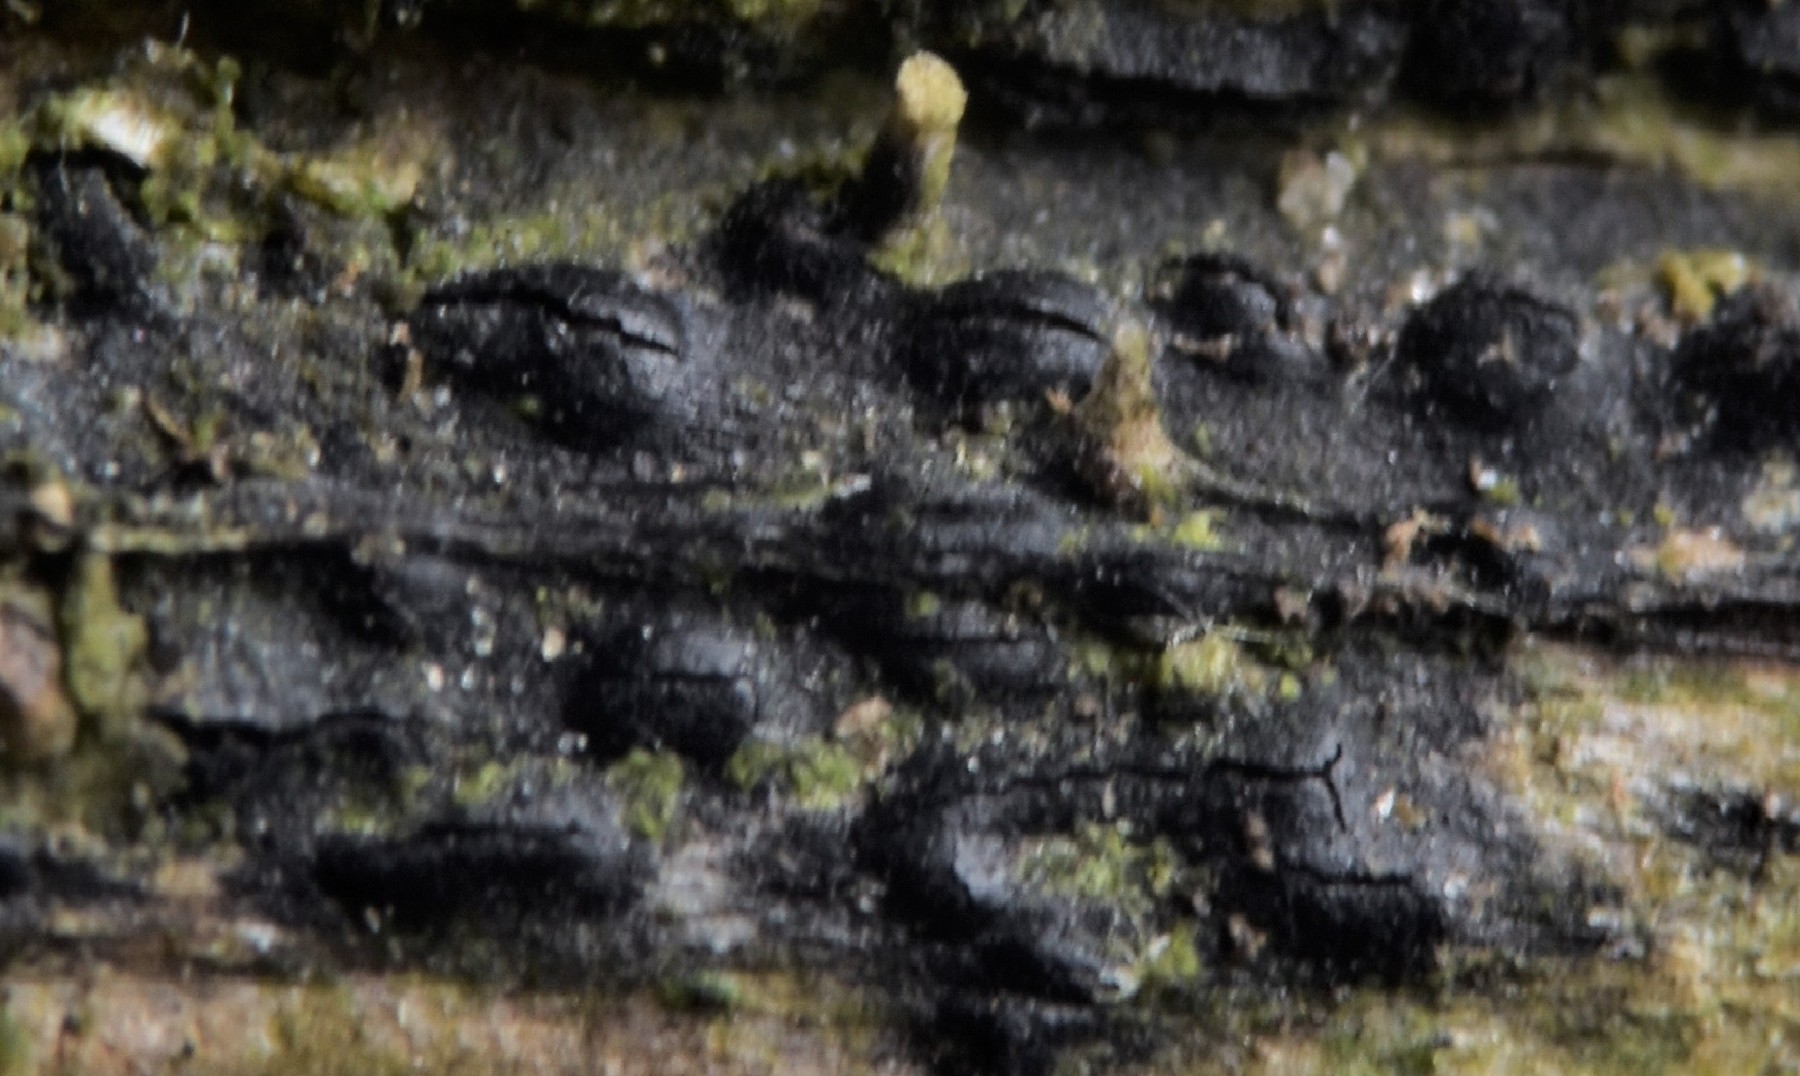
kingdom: Fungi
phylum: Ascomycota
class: Sordariomycetes
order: Diaporthales
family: Diaporthaceae
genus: Diaporthopsis
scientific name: Diaporthopsis urticae
